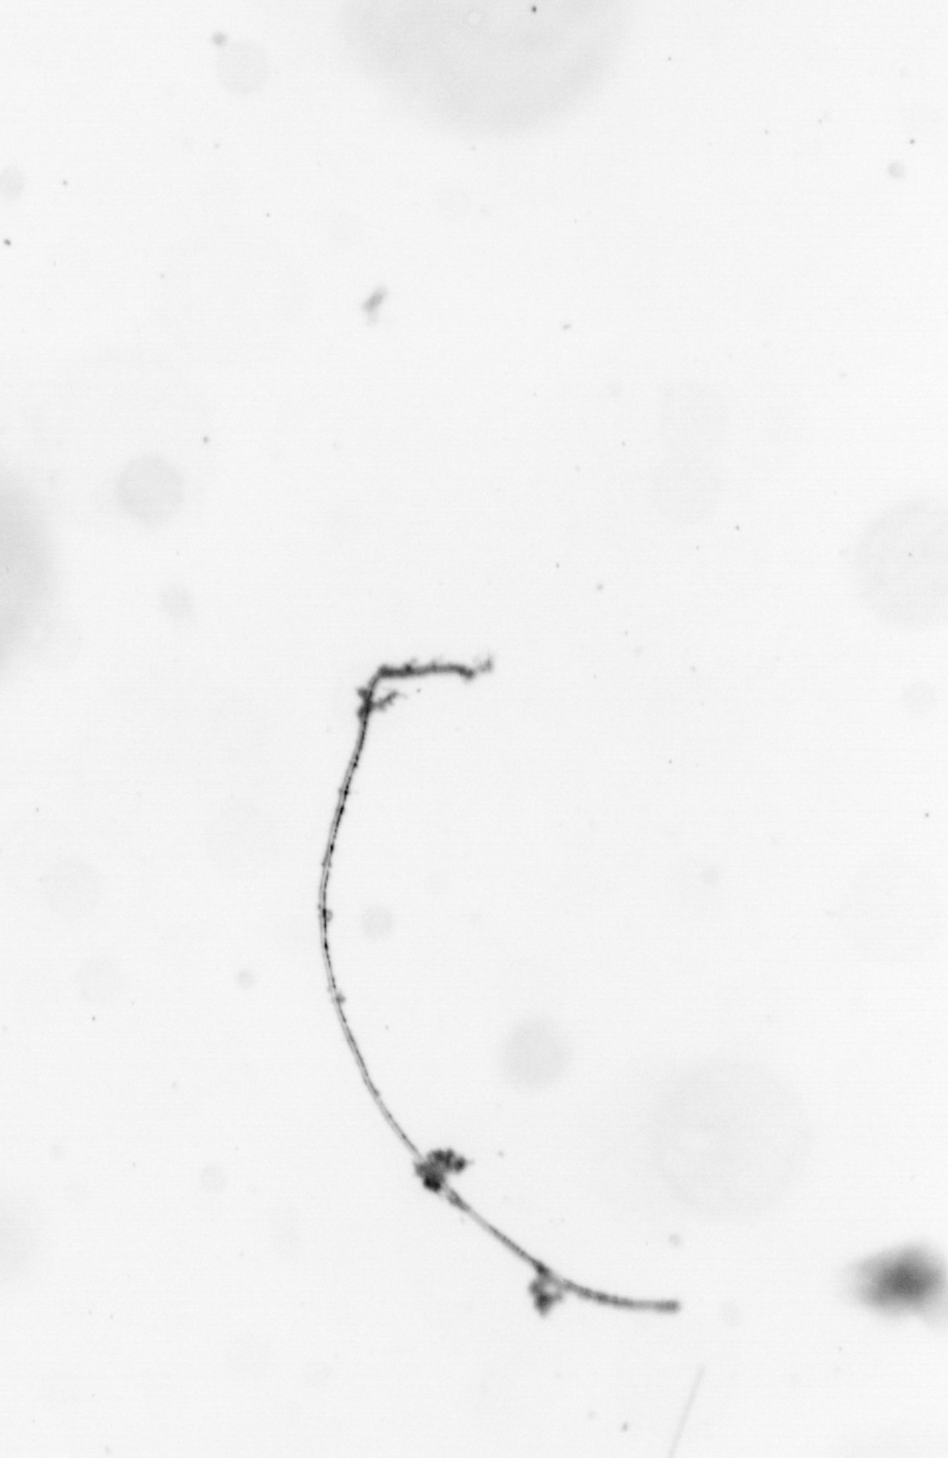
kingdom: Chromista
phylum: Ochrophyta
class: Bacillariophyceae
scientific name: Bacillariophyceae
